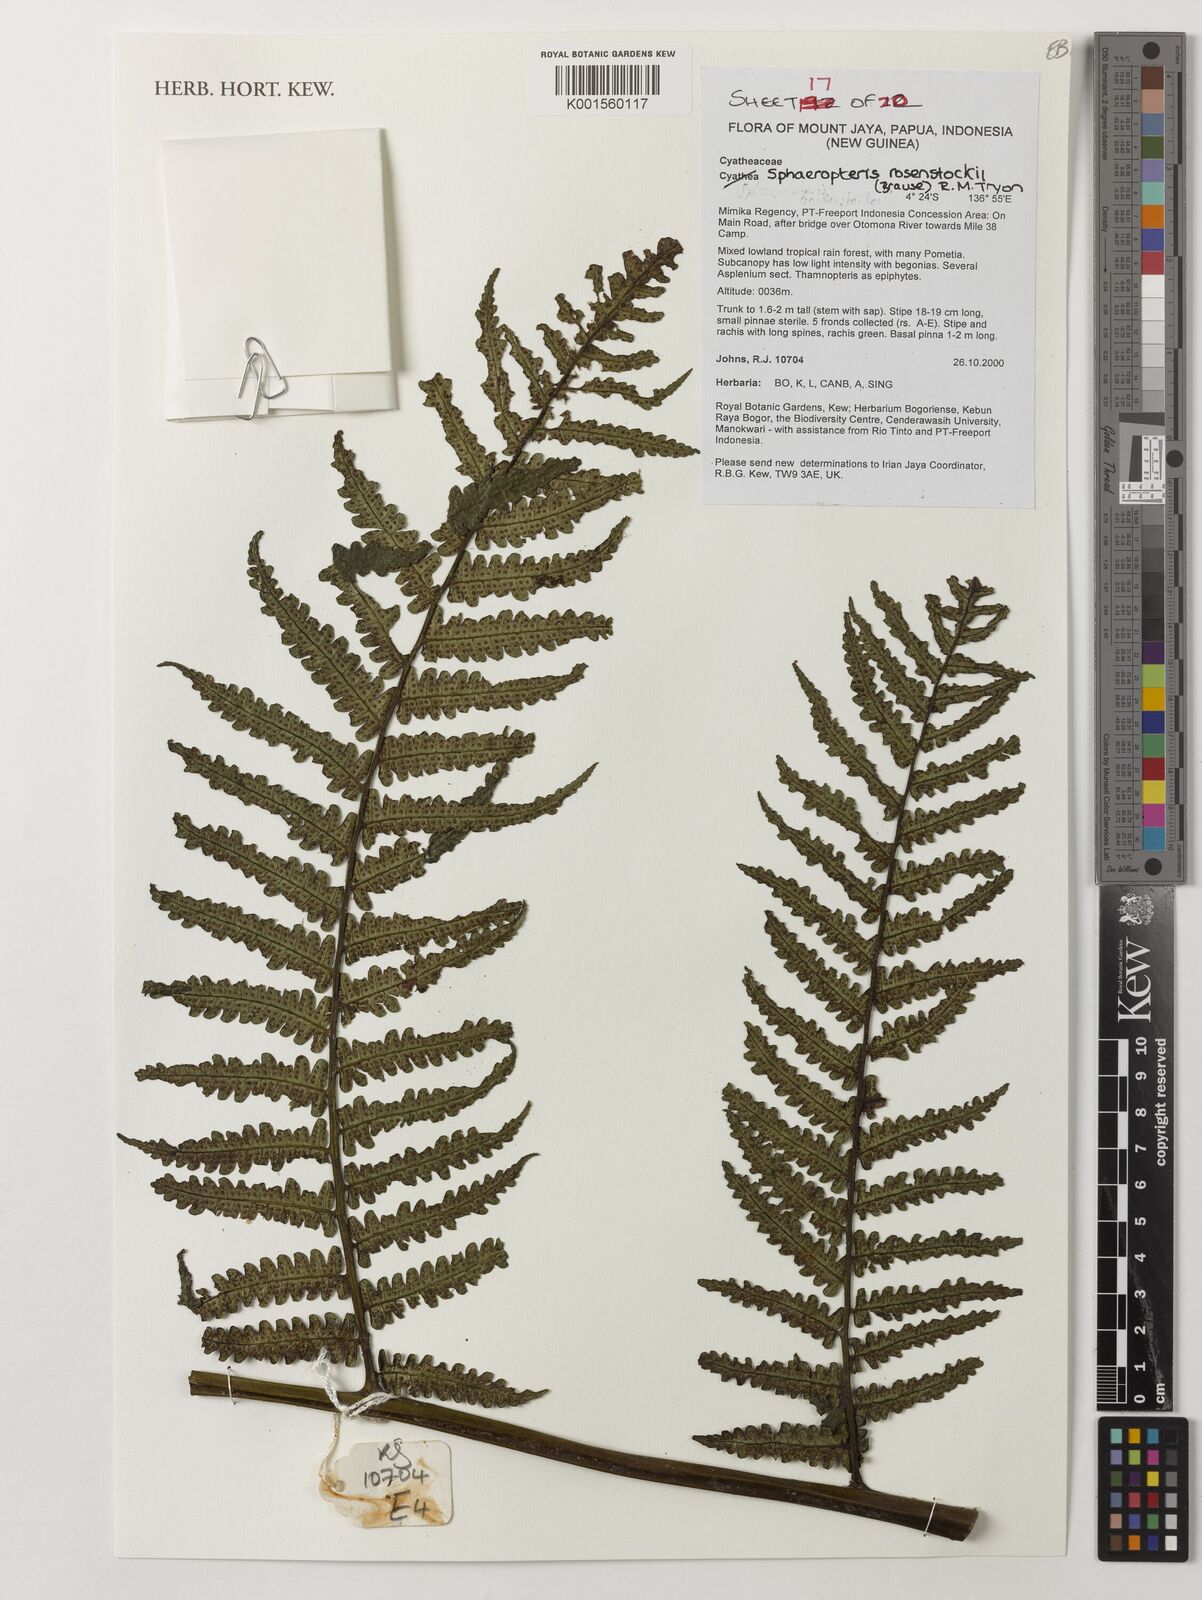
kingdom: Plantae
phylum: Tracheophyta
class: Polypodiopsida
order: Cyatheales
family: Cyatheaceae
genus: Sphaeropteris
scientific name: Sphaeropteris rosenstockii
